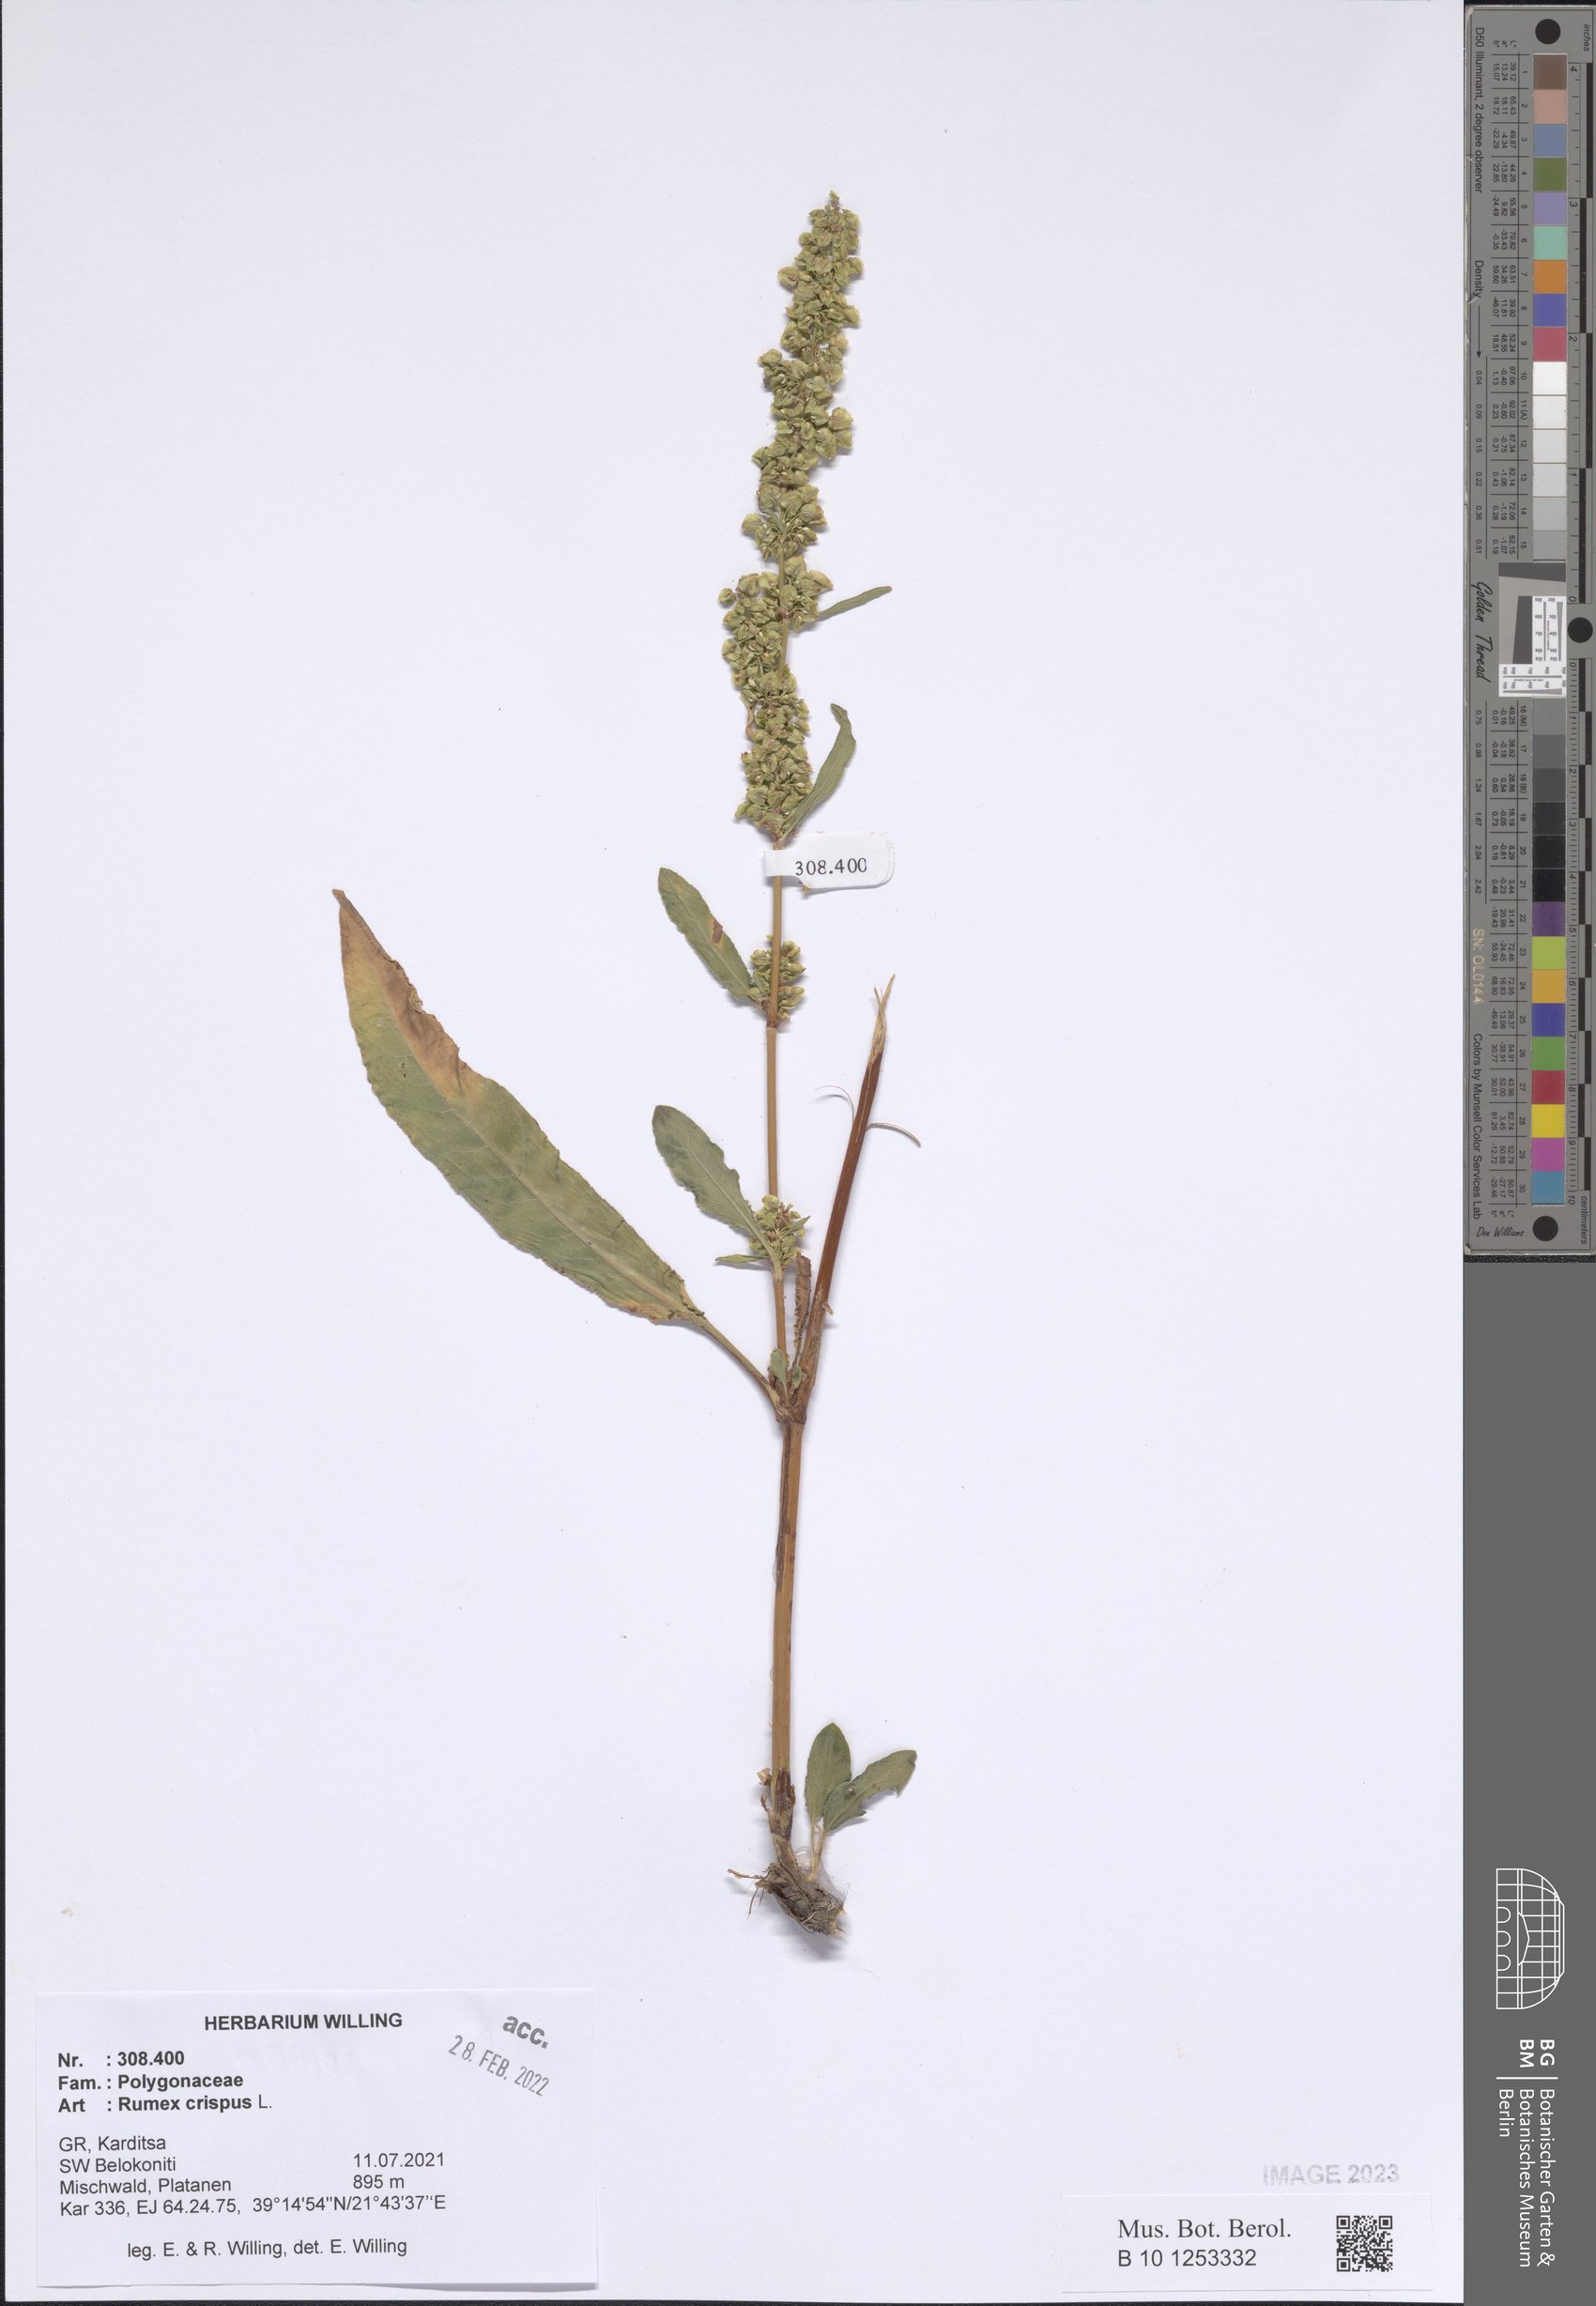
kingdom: Plantae
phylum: Tracheophyta
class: Magnoliopsida
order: Caryophyllales
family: Polygonaceae
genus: Rumex
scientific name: Rumex crispus
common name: Curled dock
